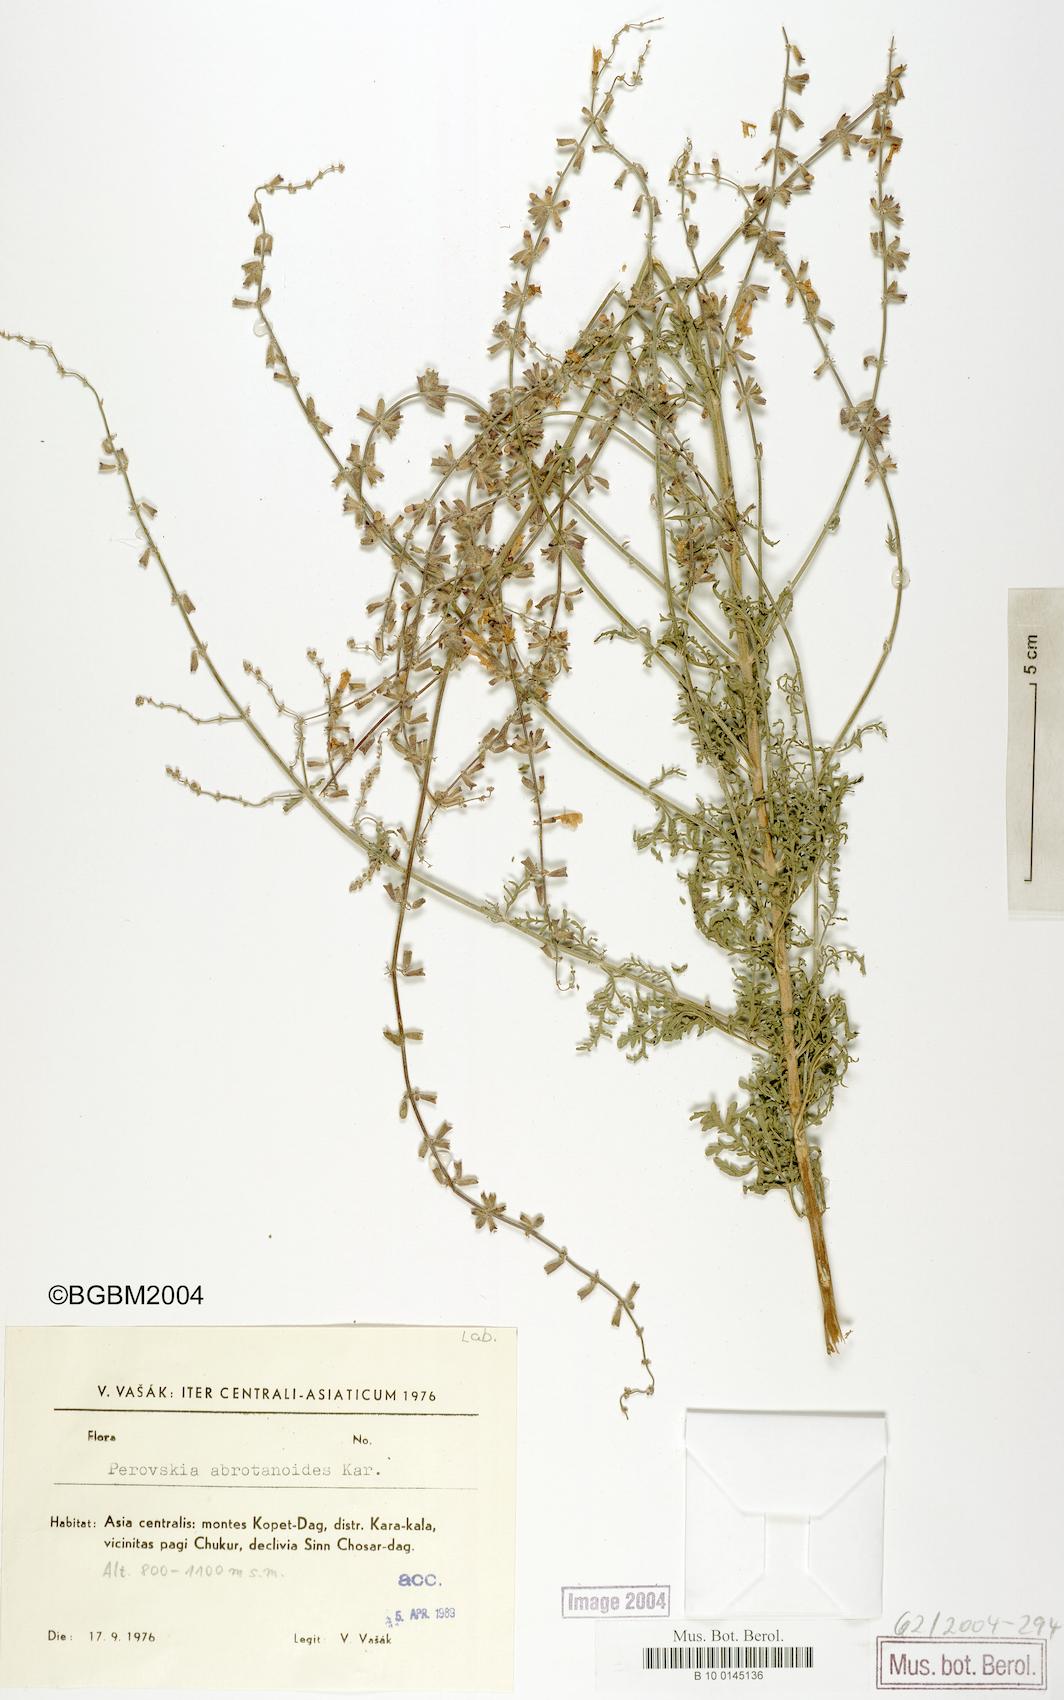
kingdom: Plantae
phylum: Tracheophyta
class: Magnoliopsida
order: Lamiales
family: Lamiaceae
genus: Salvia
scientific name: Salvia abrotanoides
